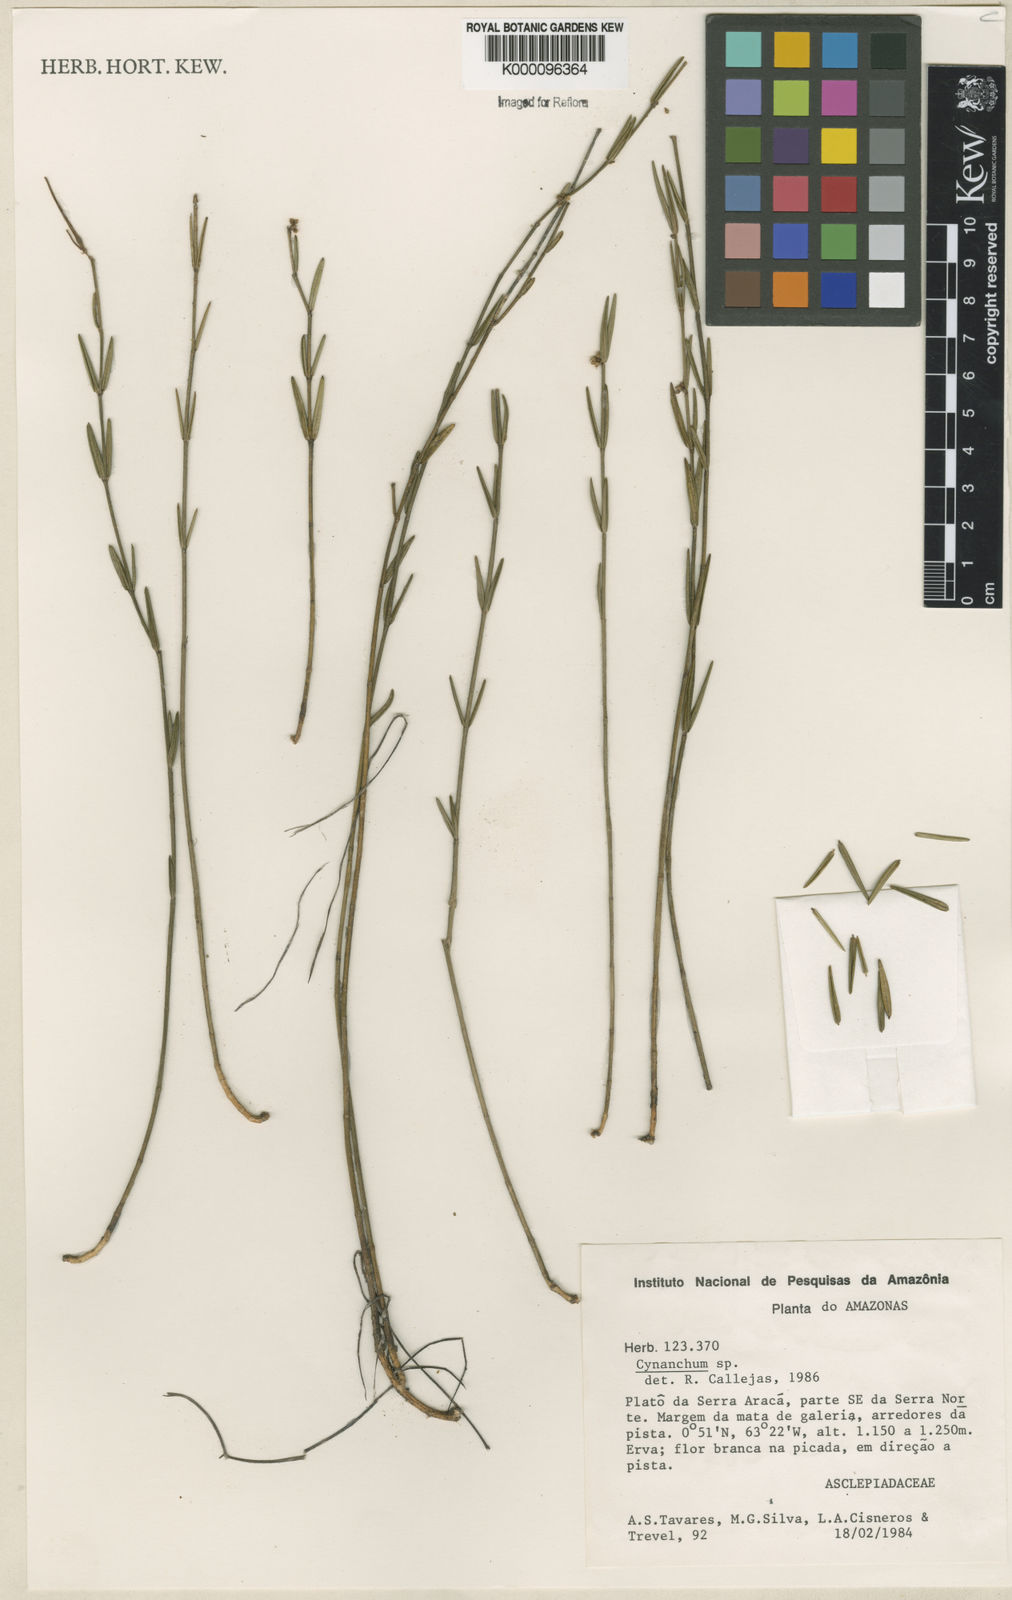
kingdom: Plantae
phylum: Tracheophyta
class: Magnoliopsida
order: Gentianales
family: Apocynaceae
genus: Tassadia
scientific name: Tassadia stricta
